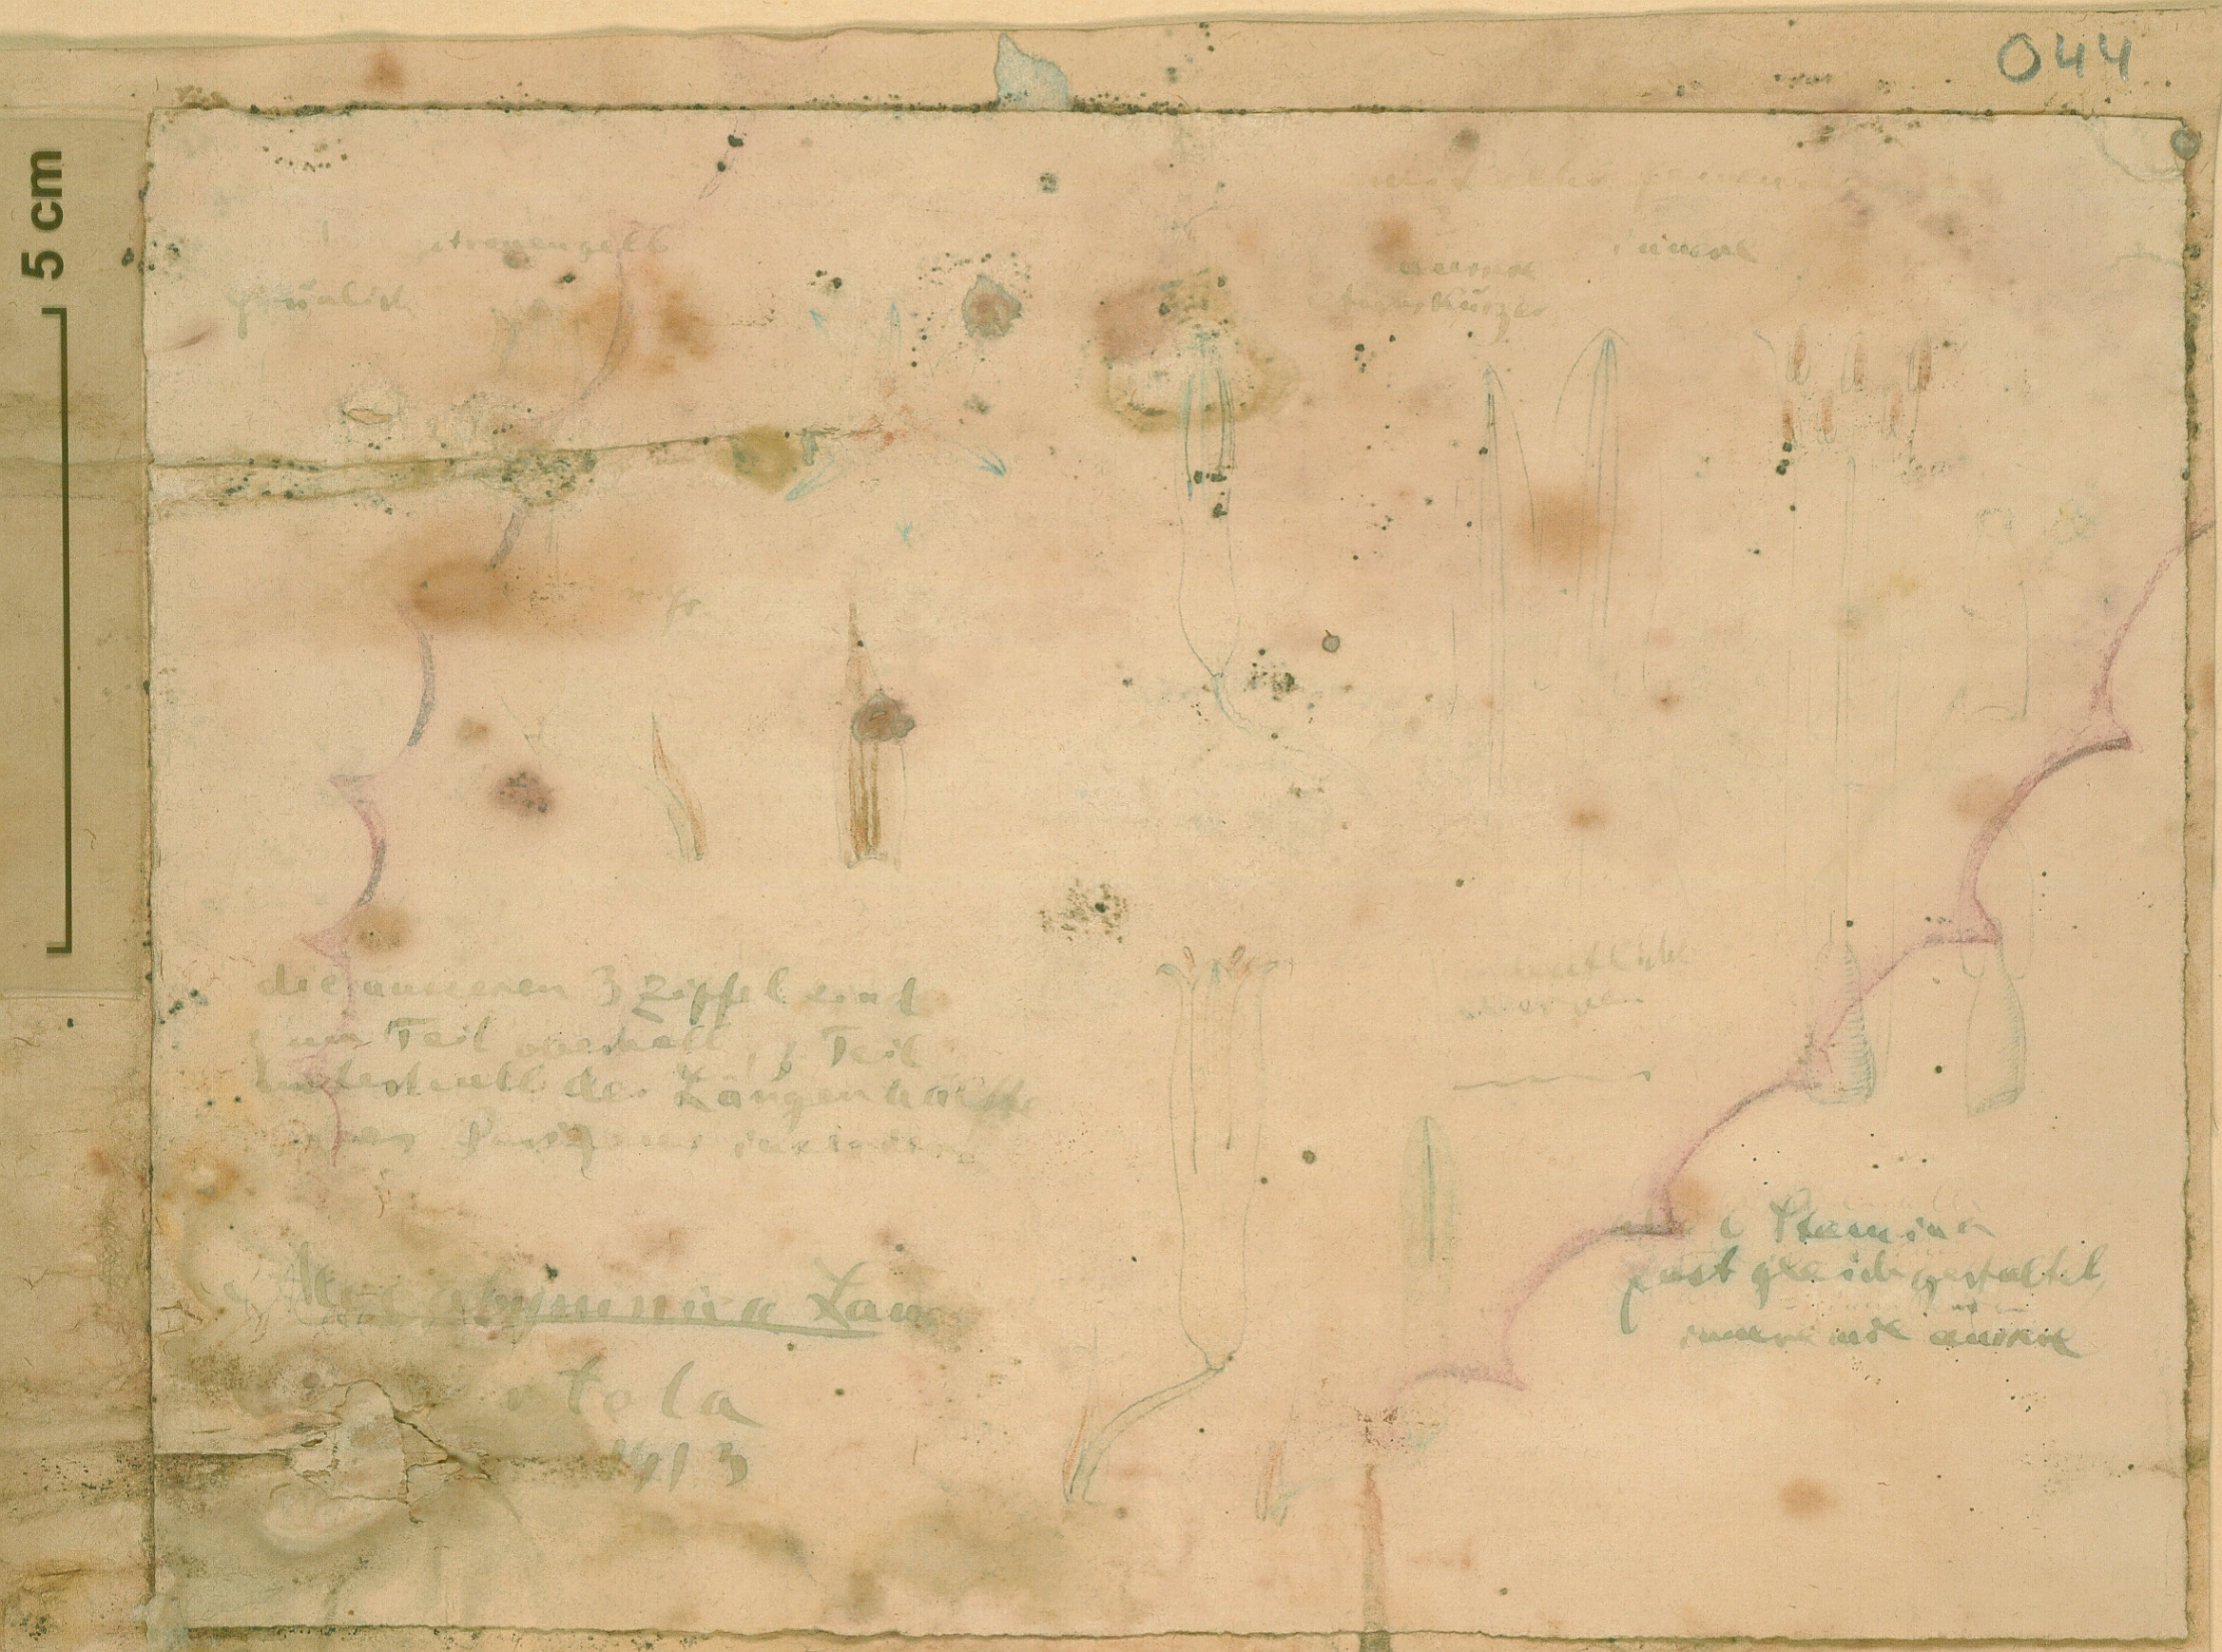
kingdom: Plantae
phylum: Tracheophyta
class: Liliopsida
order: Asparagales
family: Asphodelaceae
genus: Aloe
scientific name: Aloe
